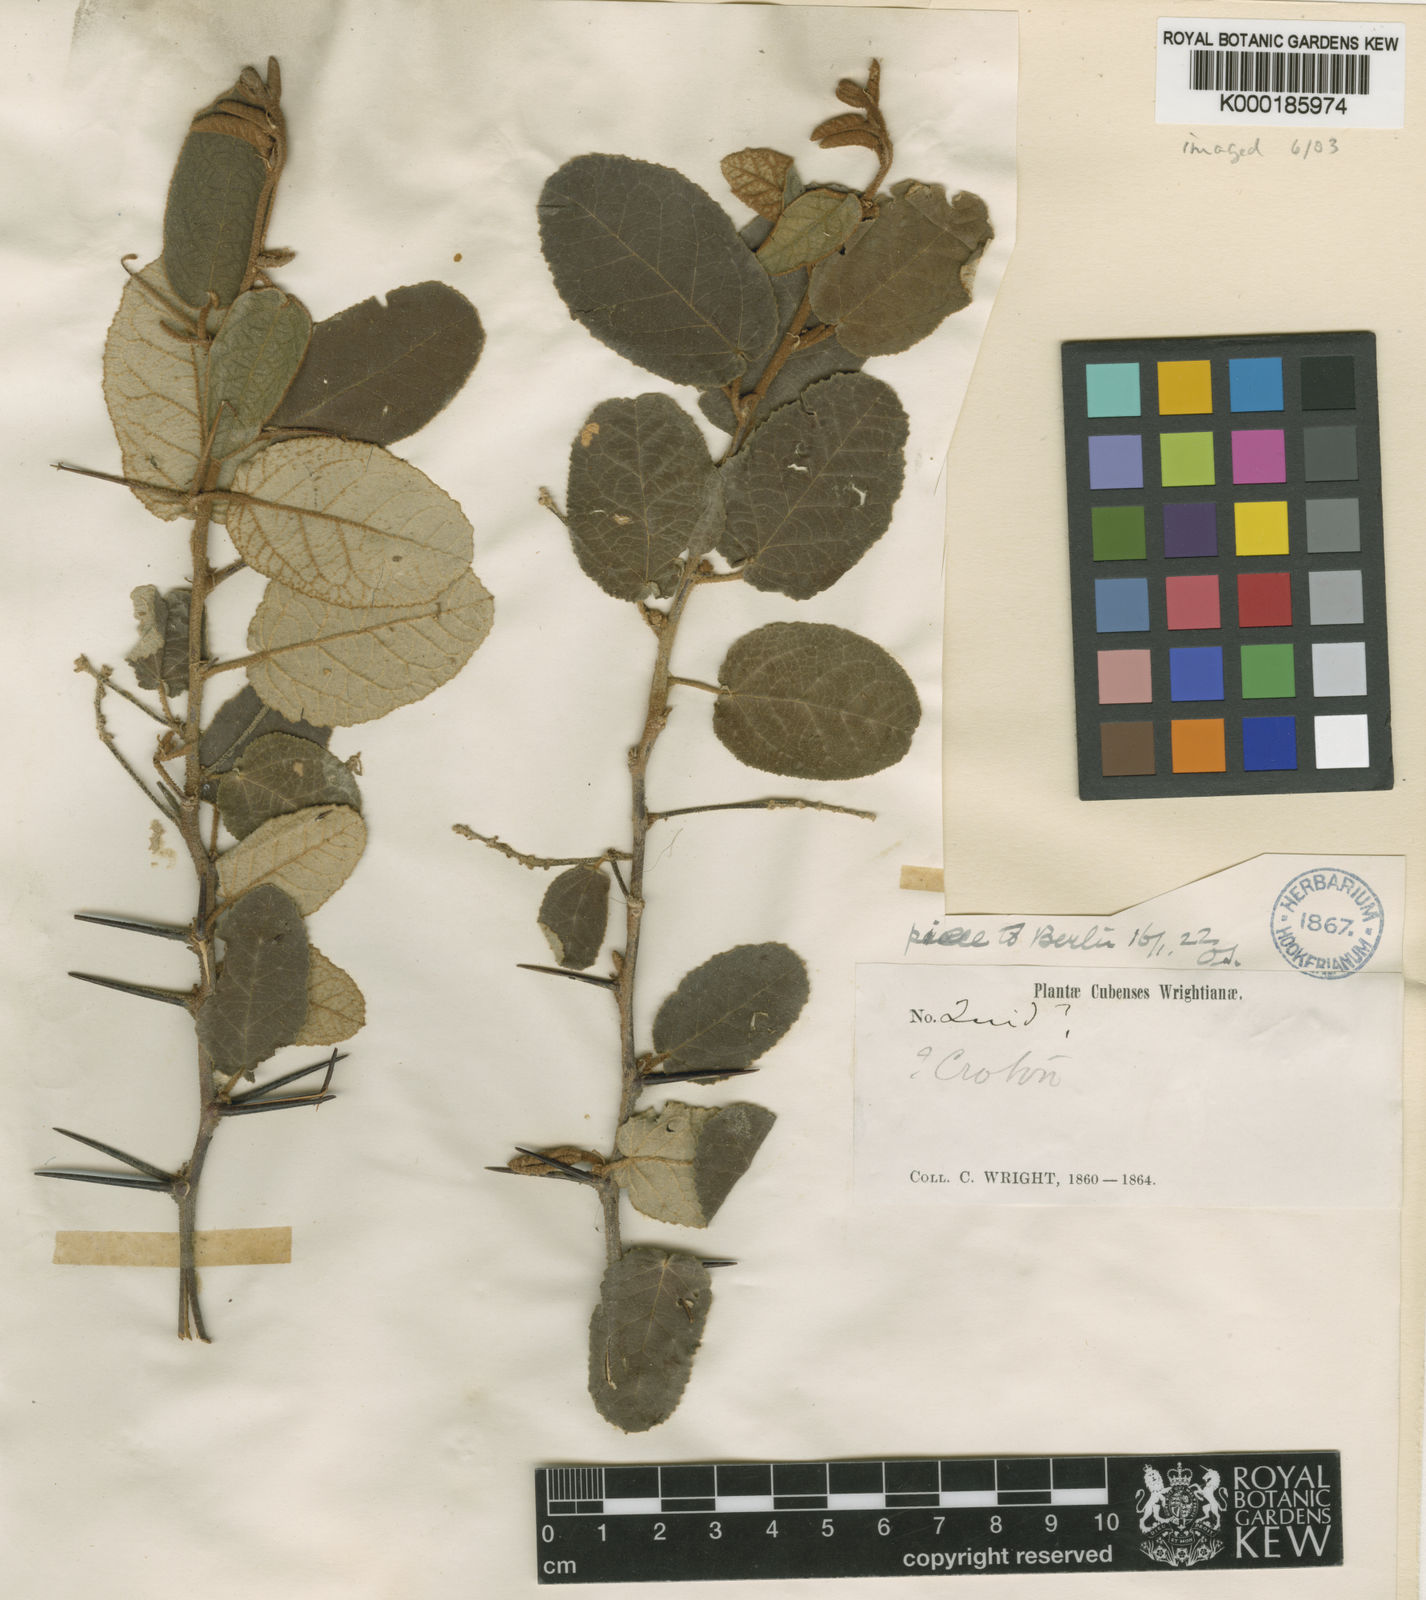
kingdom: Plantae
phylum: Tracheophyta
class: Magnoliopsida
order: Malpighiales
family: Euphorbiaceae
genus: Croton
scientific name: Croton
